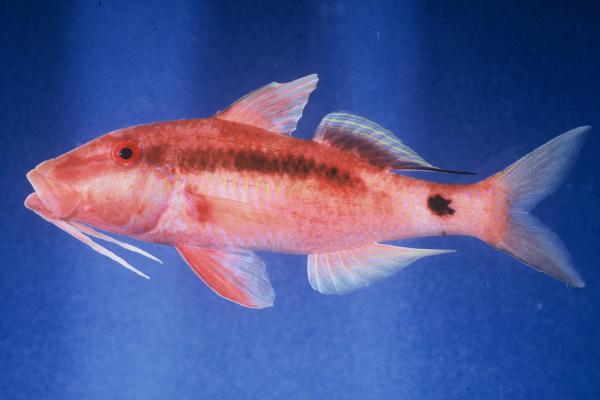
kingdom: Animalia
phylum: Chordata
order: Perciformes
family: Mullidae
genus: Parupeneus
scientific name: Parupeneus macronemus
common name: Long-barbel goatfish
